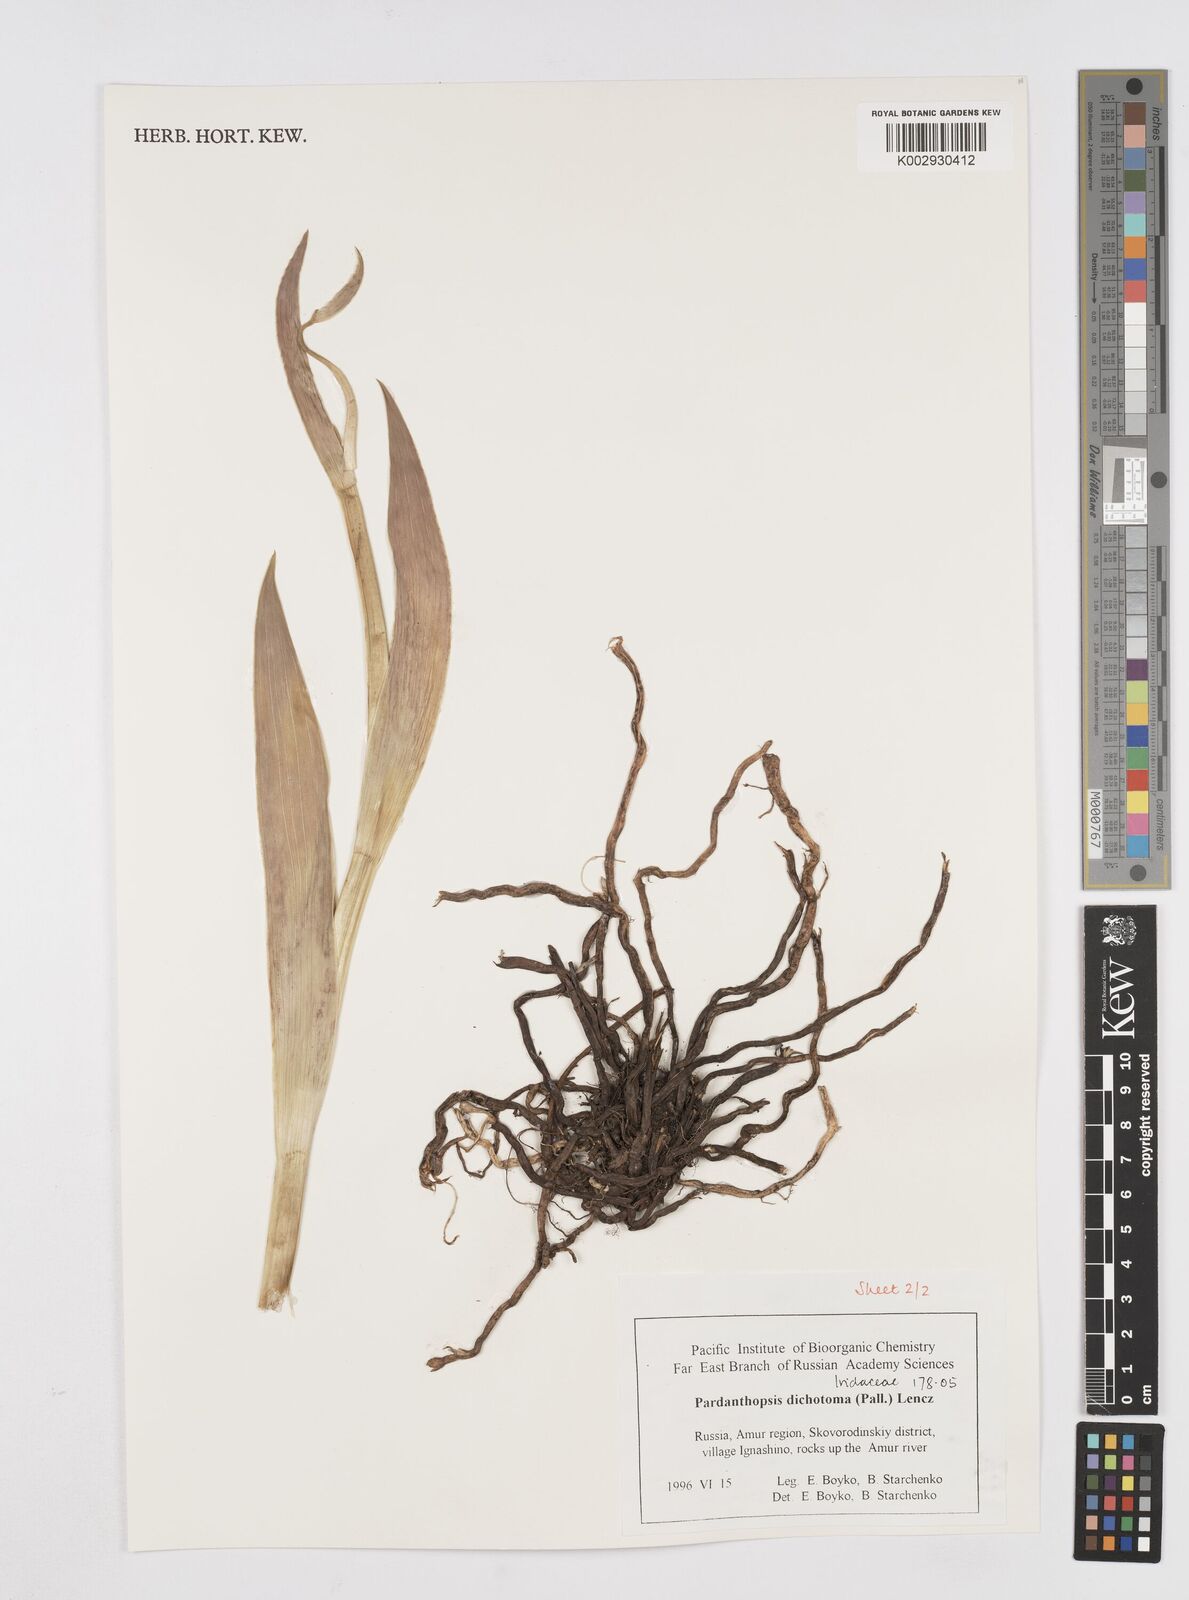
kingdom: Plantae
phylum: Tracheophyta
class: Liliopsida
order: Asparagales
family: Iridaceae
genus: Iris
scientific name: Iris dichotoma
